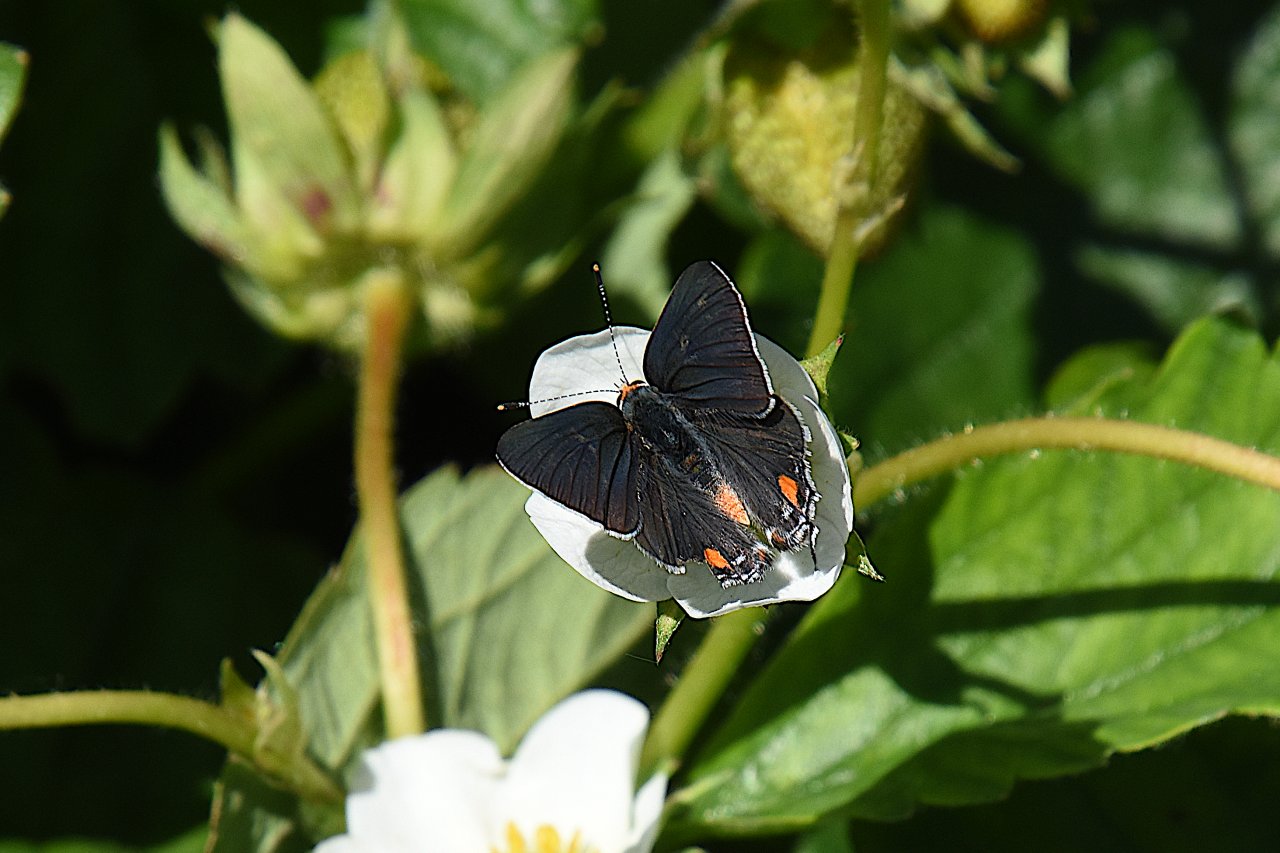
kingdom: Animalia
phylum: Arthropoda
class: Insecta
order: Lepidoptera
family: Lycaenidae
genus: Strymon
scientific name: Strymon melinus
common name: Gray Hairstreak
